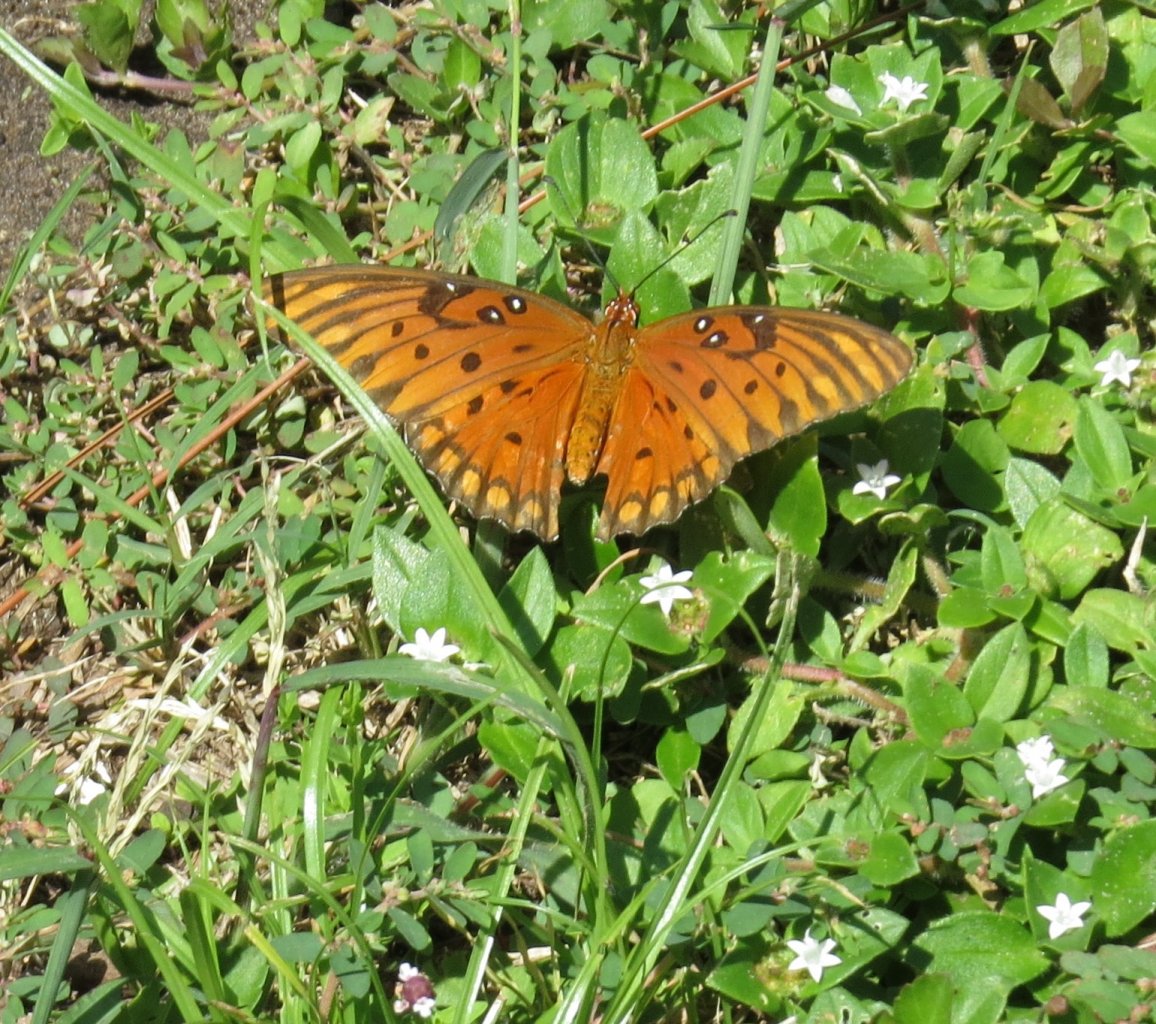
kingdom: Animalia
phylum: Arthropoda
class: Insecta
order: Lepidoptera
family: Nymphalidae
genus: Dione
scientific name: Dione vanillae
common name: Gulf Fritillary
